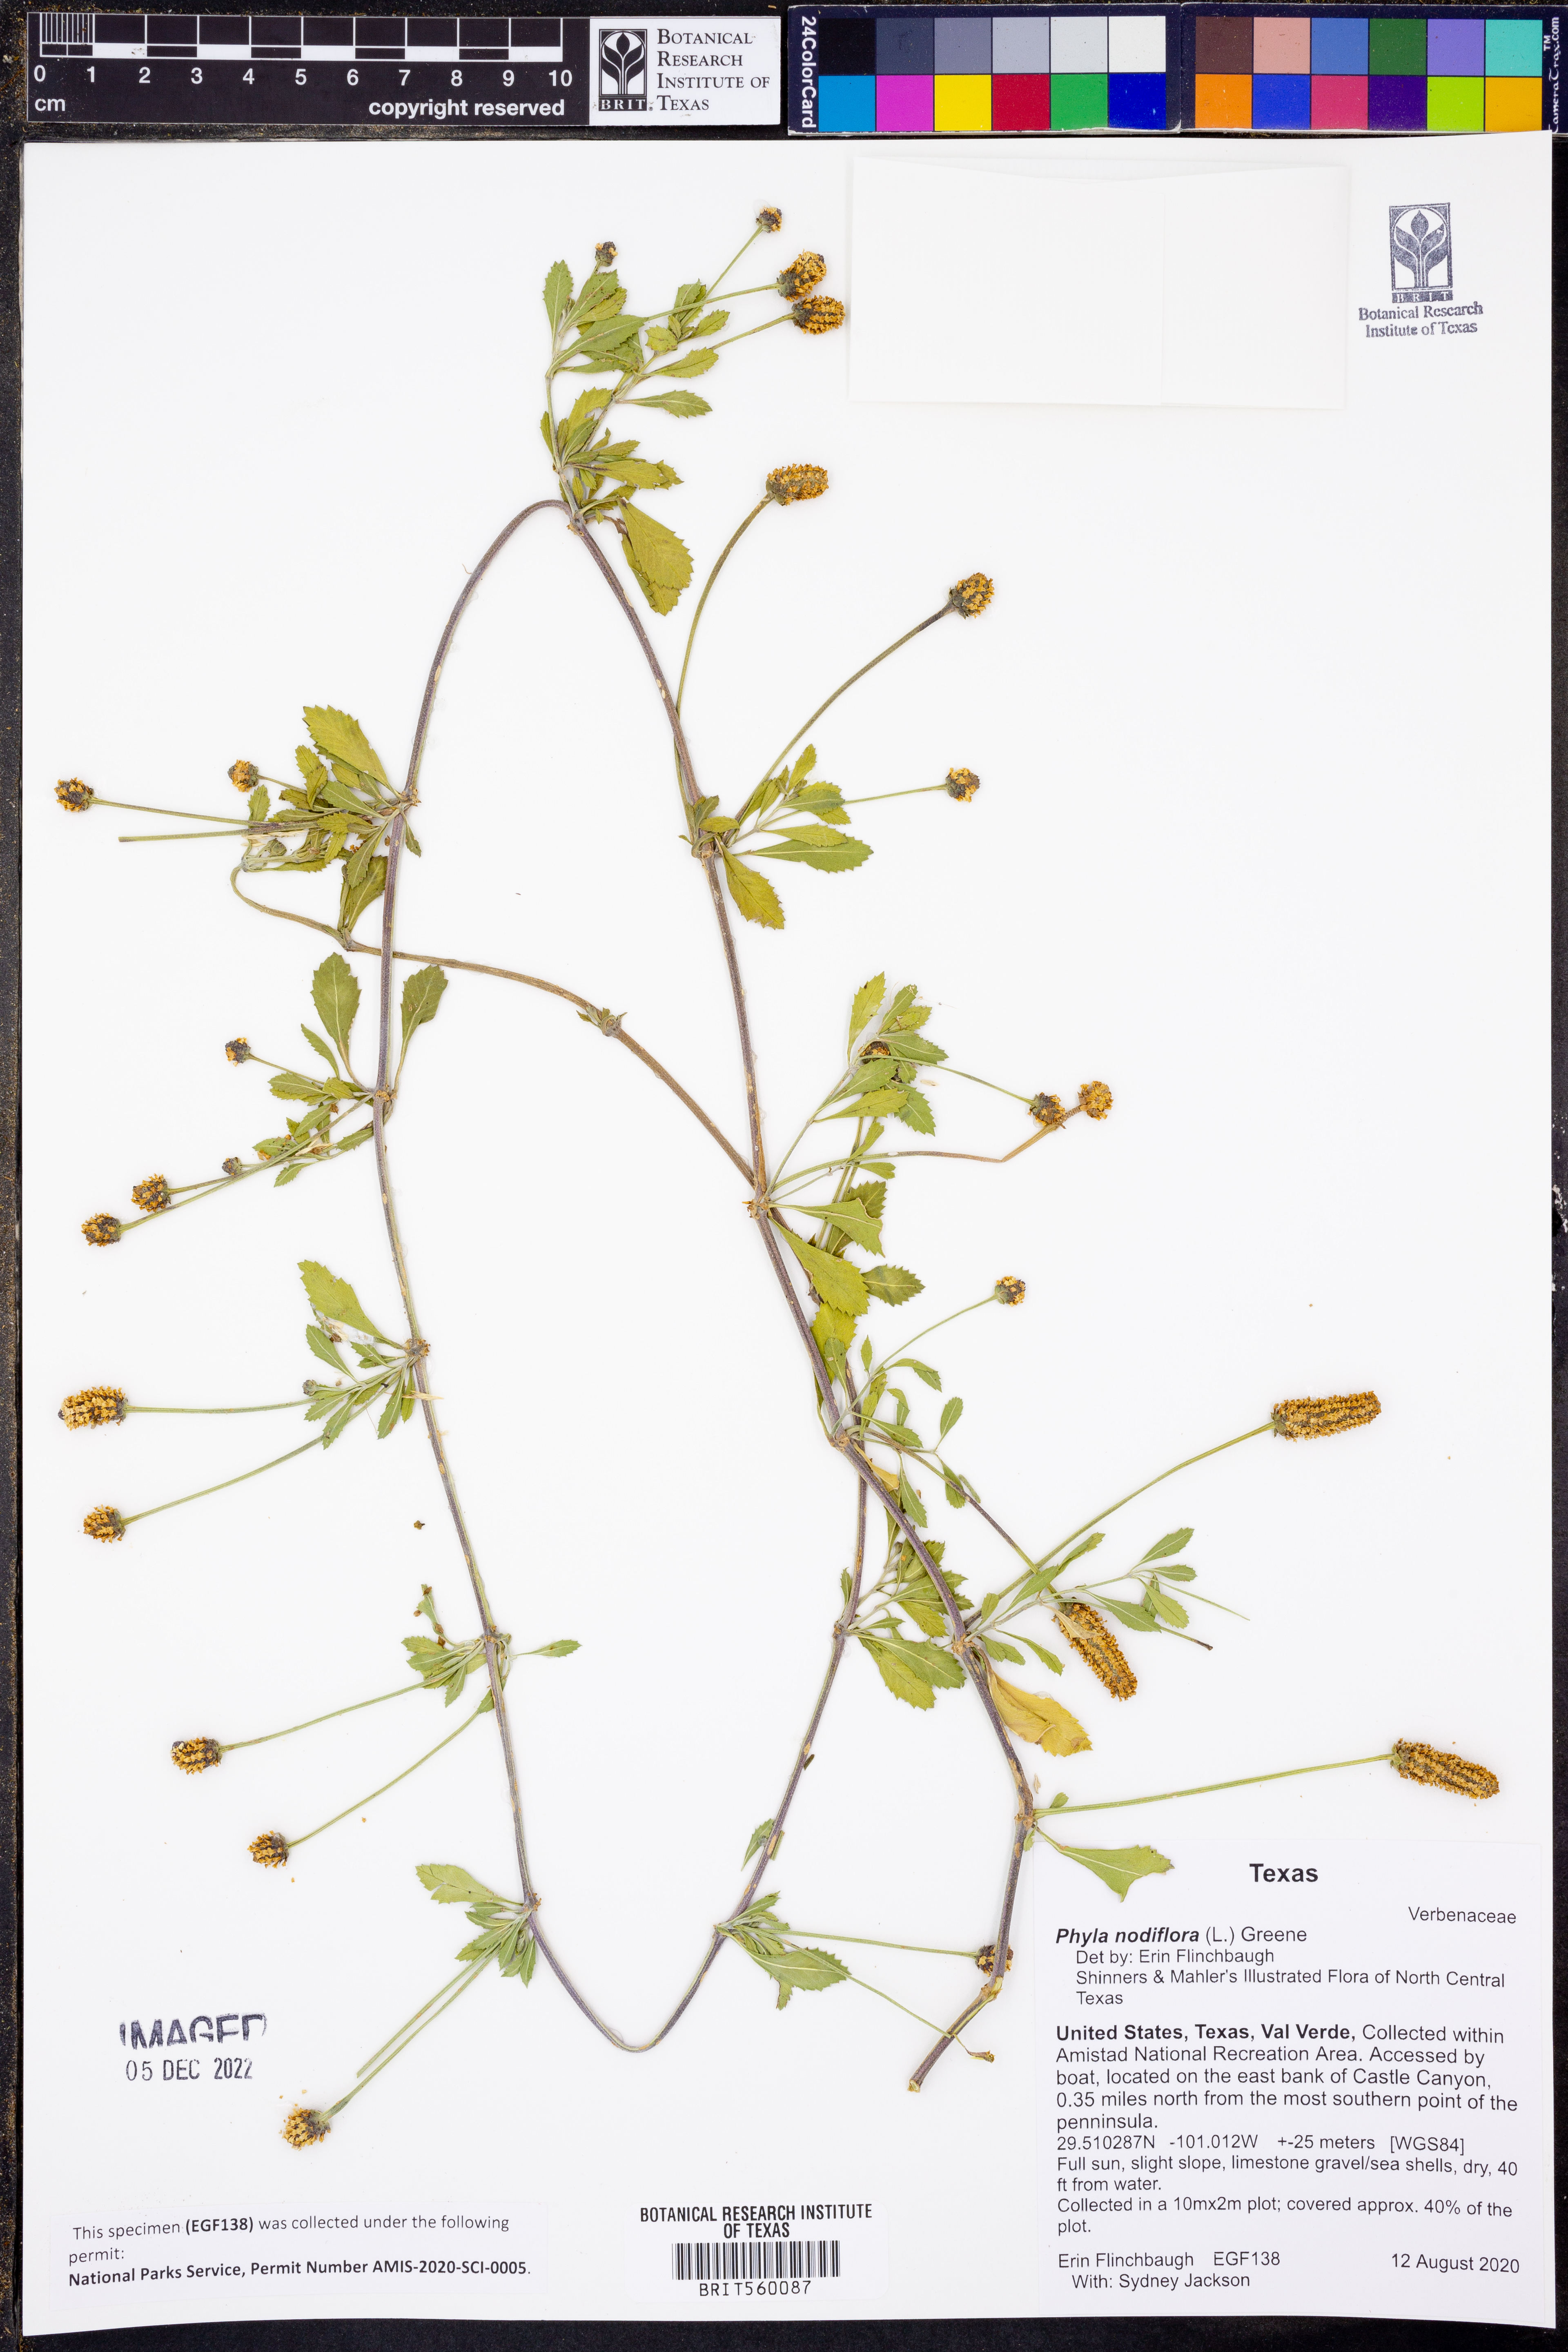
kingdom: Plantae
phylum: Tracheophyta
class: Magnoliopsida
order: Lamiales
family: Verbenaceae
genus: Phyla
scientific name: Phyla nodiflora
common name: Frogfruit
